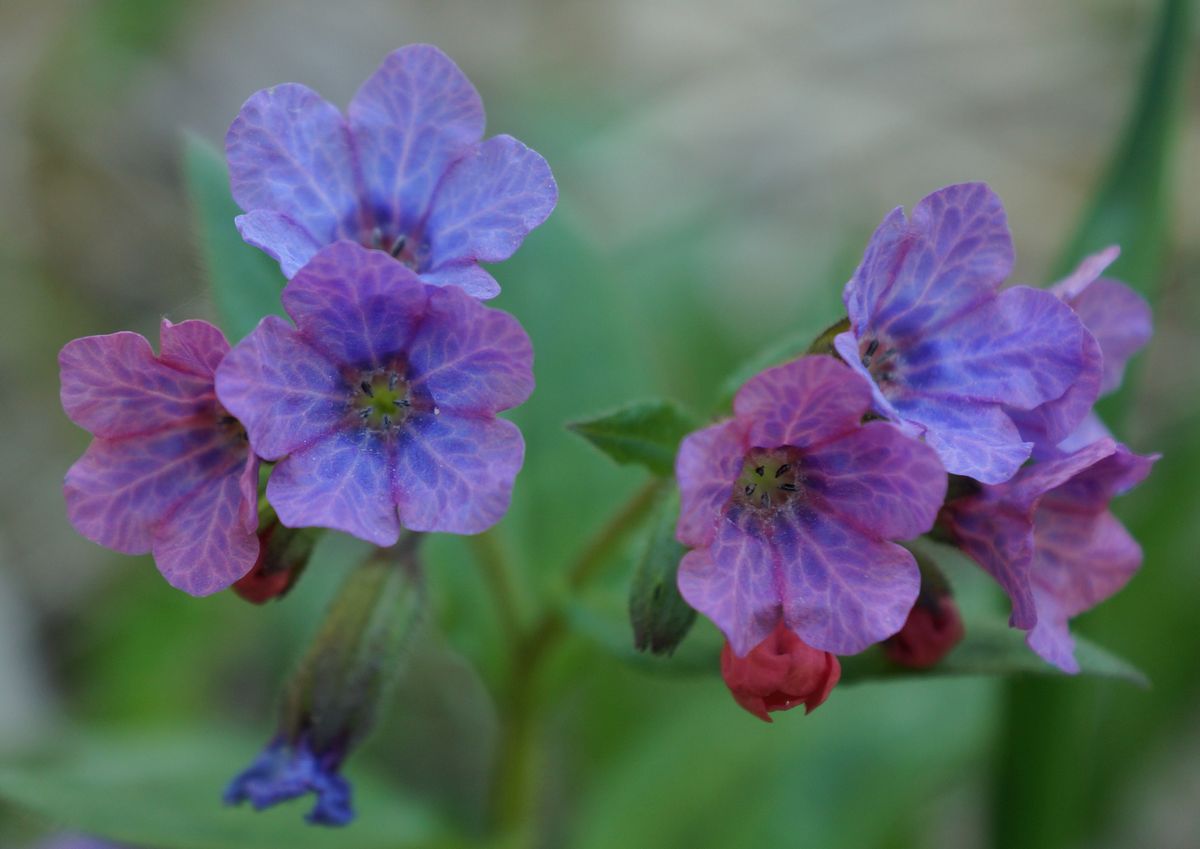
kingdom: Plantae
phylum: Tracheophyta
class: Magnoliopsida
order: Boraginales
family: Boraginaceae
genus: Pulmonaria
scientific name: Pulmonaria obscura
